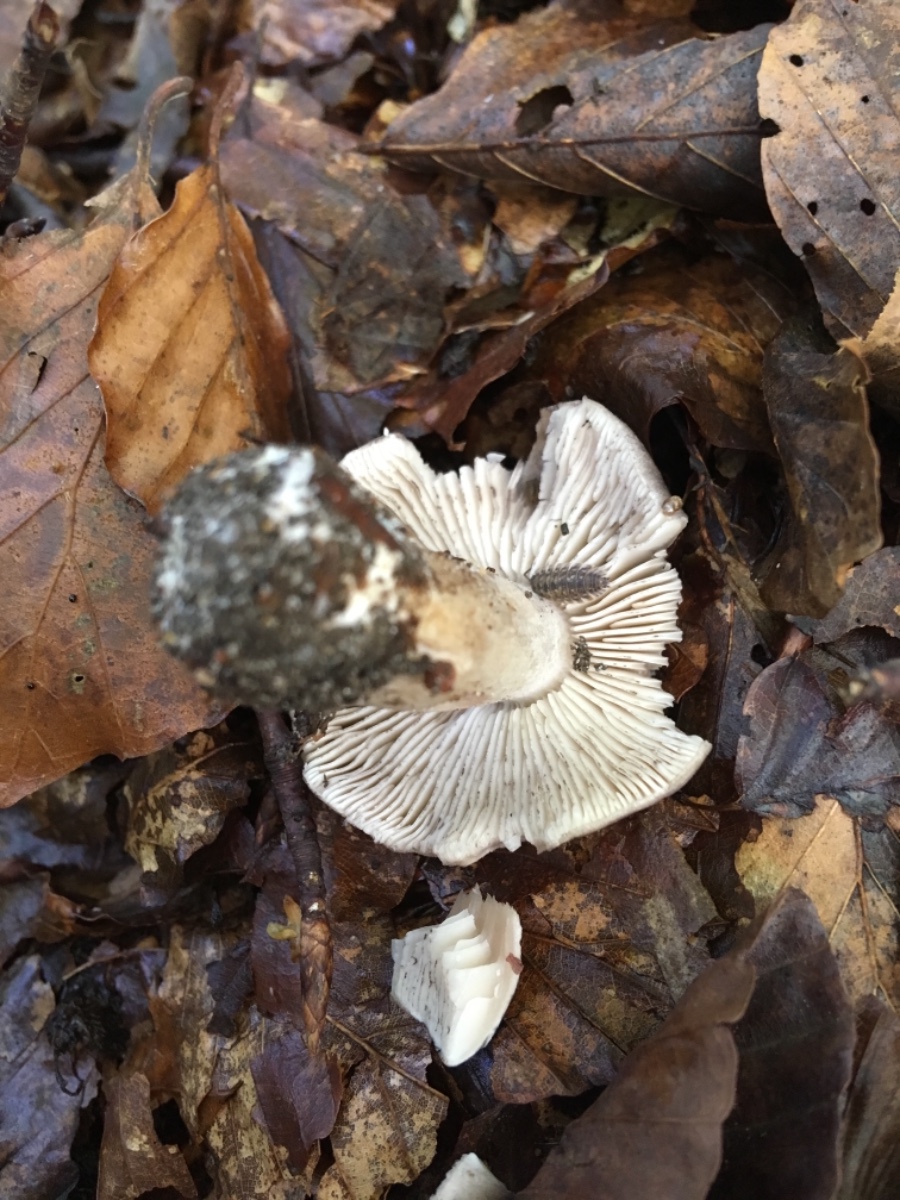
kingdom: Fungi
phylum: Basidiomycota
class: Agaricomycetes
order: Agaricales
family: Tricholomataceae
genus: Tricholoma
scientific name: Tricholoma sciodes
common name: stribet ridderhat
